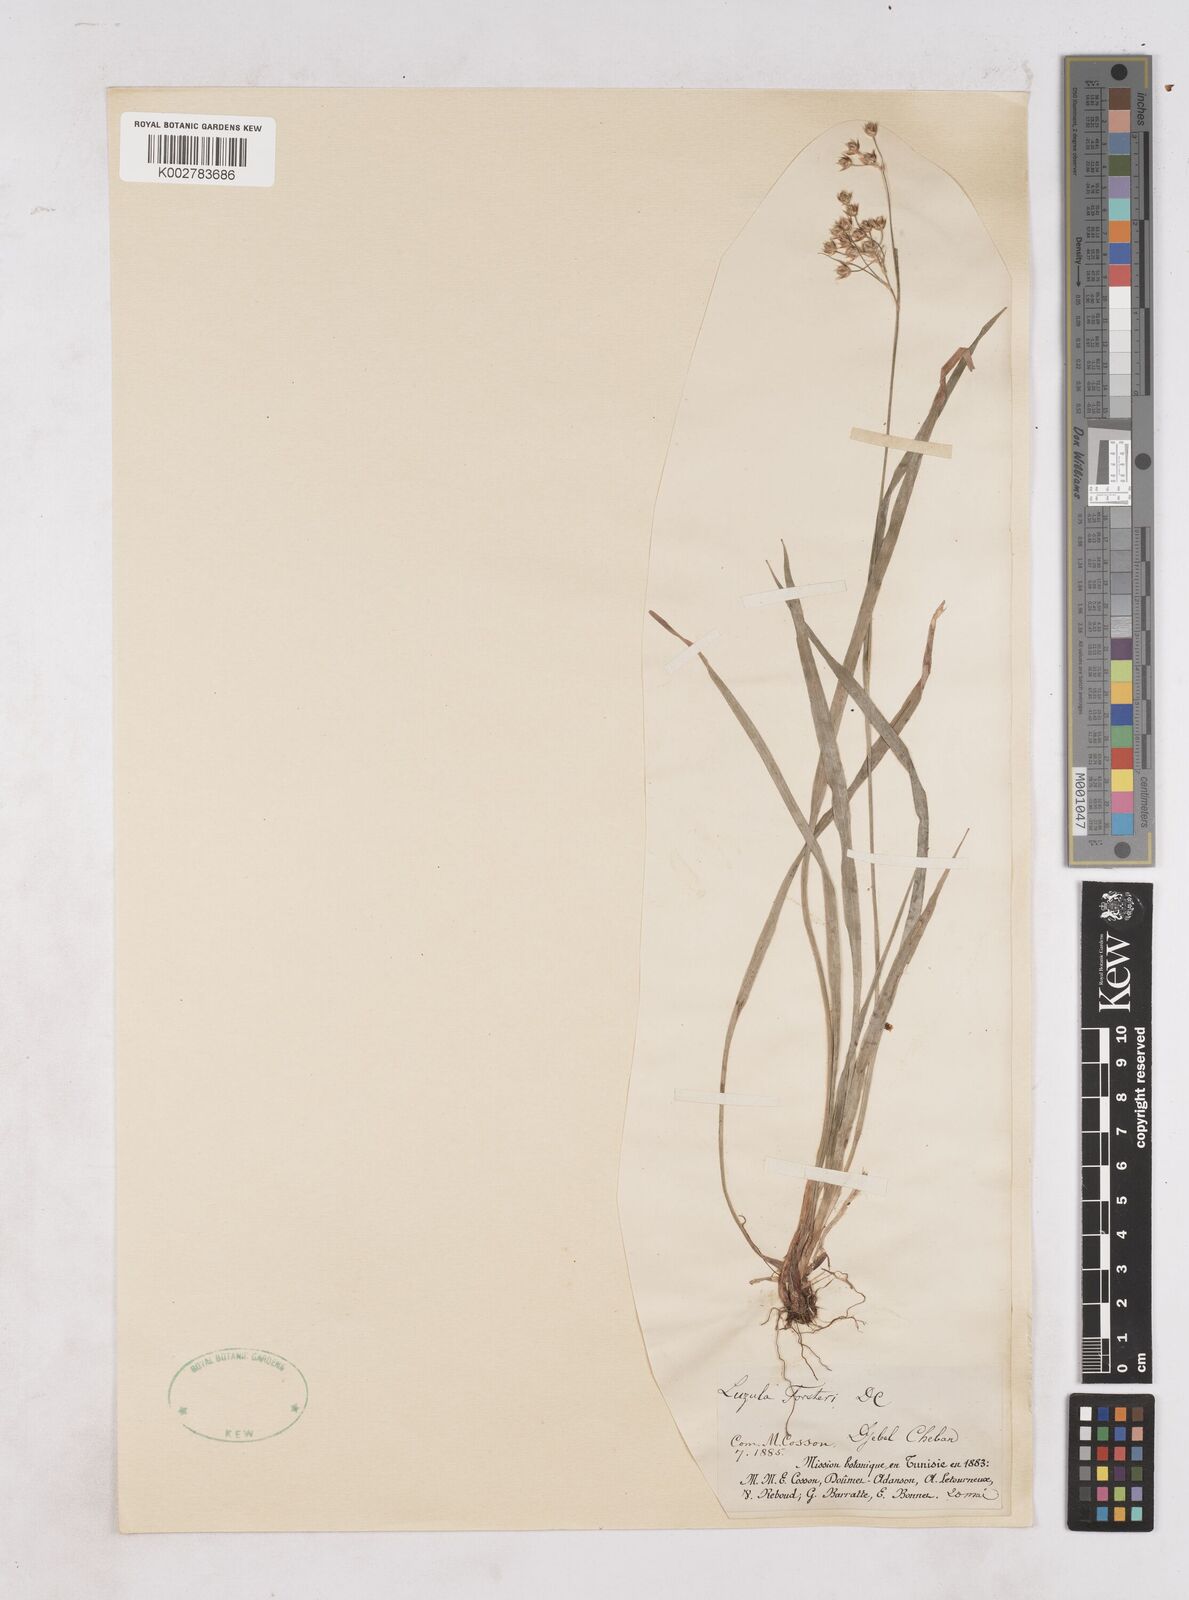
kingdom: Plantae
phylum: Tracheophyta
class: Liliopsida
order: Poales
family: Juncaceae
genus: Luzula
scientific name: Luzula forsteri
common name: Southern wood-rush
